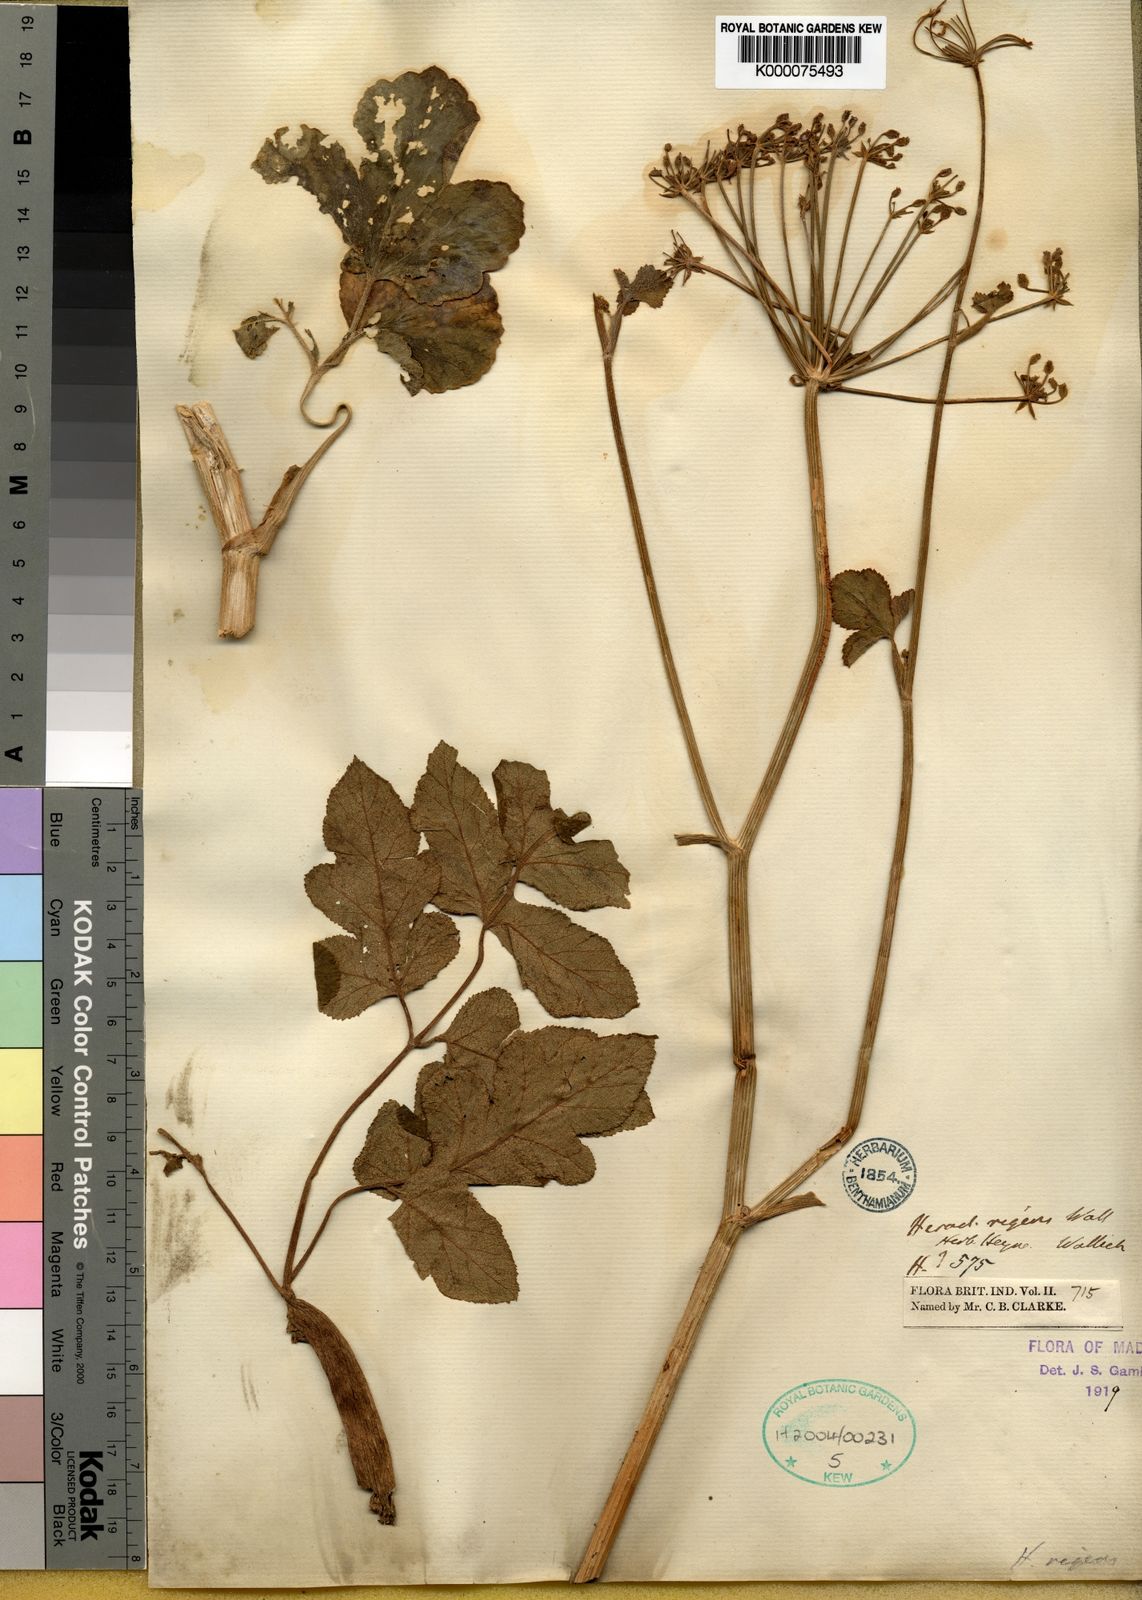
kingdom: Plantae
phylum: Tracheophyta
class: Magnoliopsida
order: Apiales
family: Apiaceae
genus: Heracleum
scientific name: Heracleum
